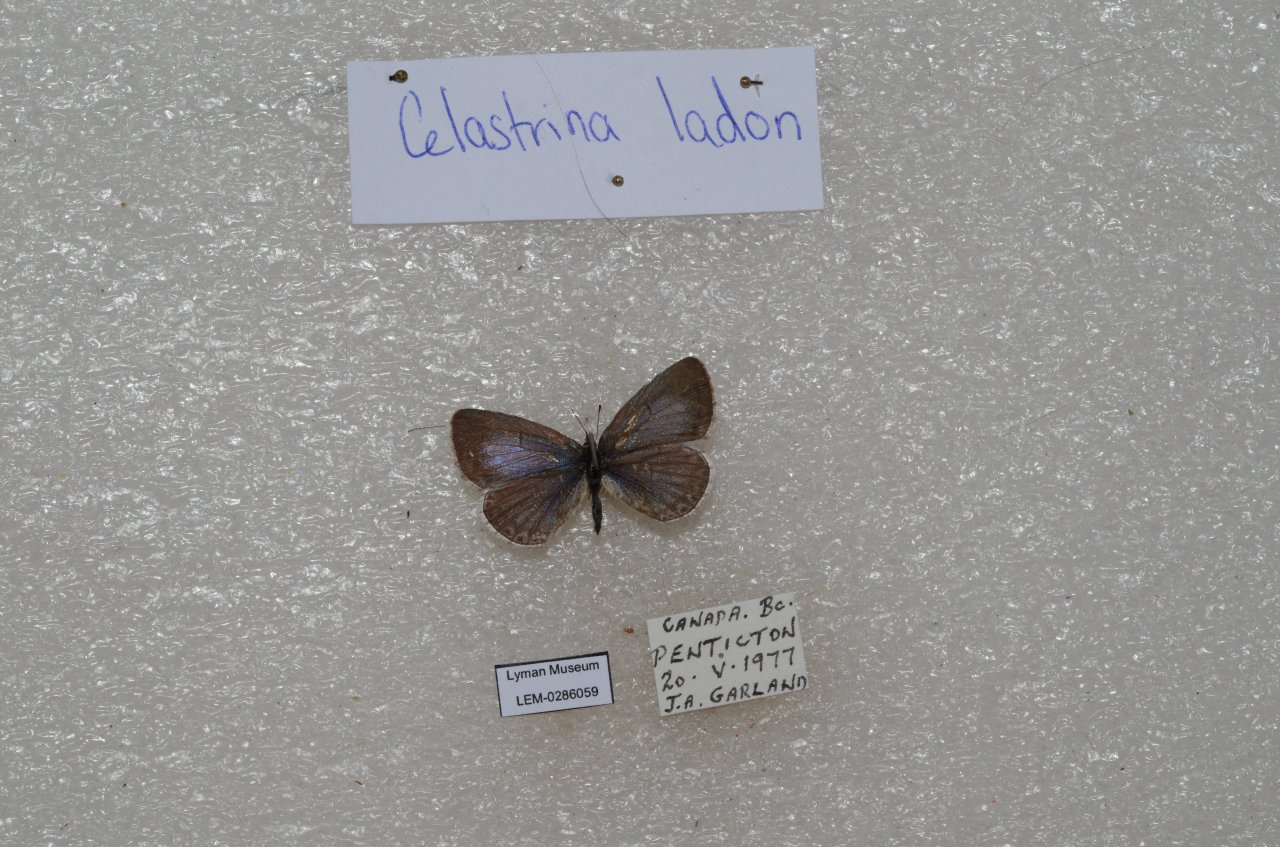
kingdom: Animalia
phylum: Arthropoda
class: Insecta
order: Lepidoptera
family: Lycaenidae
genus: Celastrina
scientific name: Celastrina
